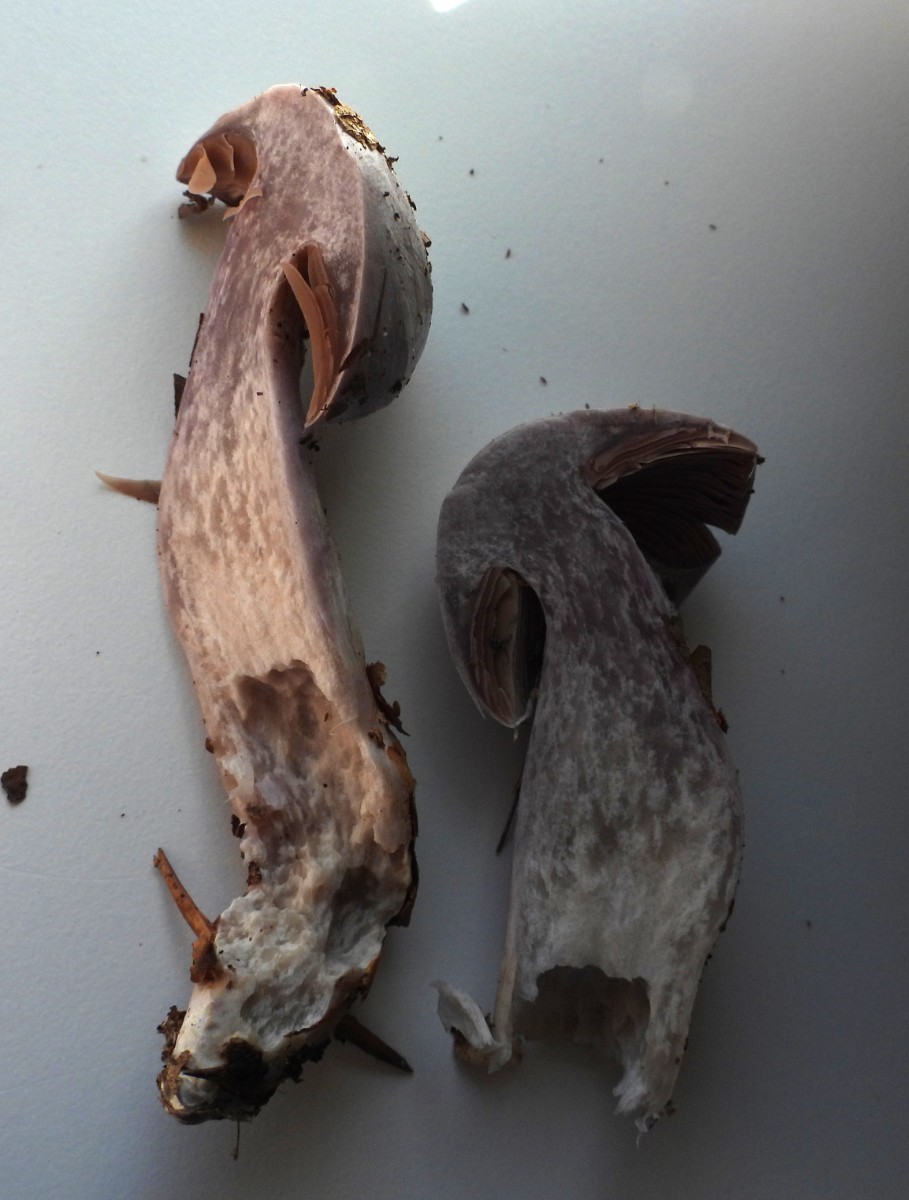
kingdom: Fungi
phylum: Basidiomycota
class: Agaricomycetes
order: Agaricales
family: Cortinariaceae
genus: Cortinarius
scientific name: Cortinarius alboviolaceus
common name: lysviolet slørhat
